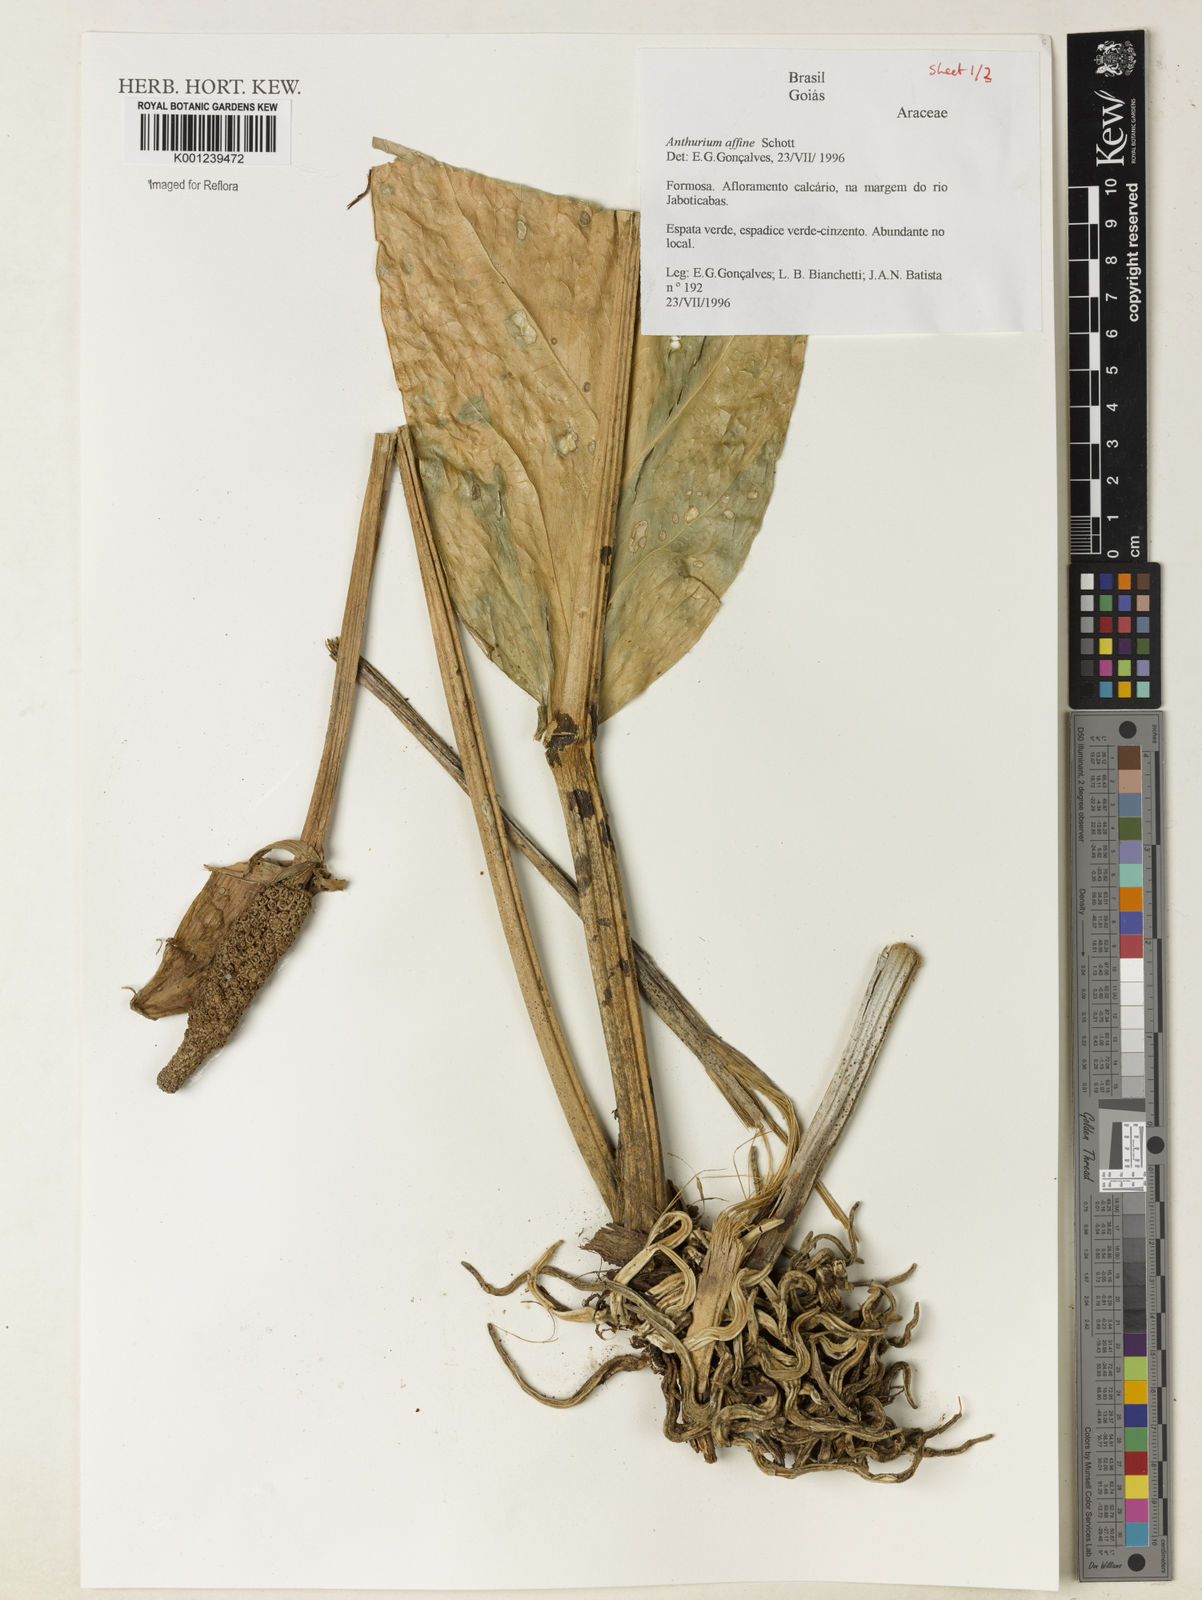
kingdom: Plantae
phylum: Tracheophyta
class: Liliopsida
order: Alismatales
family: Araceae
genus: Anthurium
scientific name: Anthurium affine
